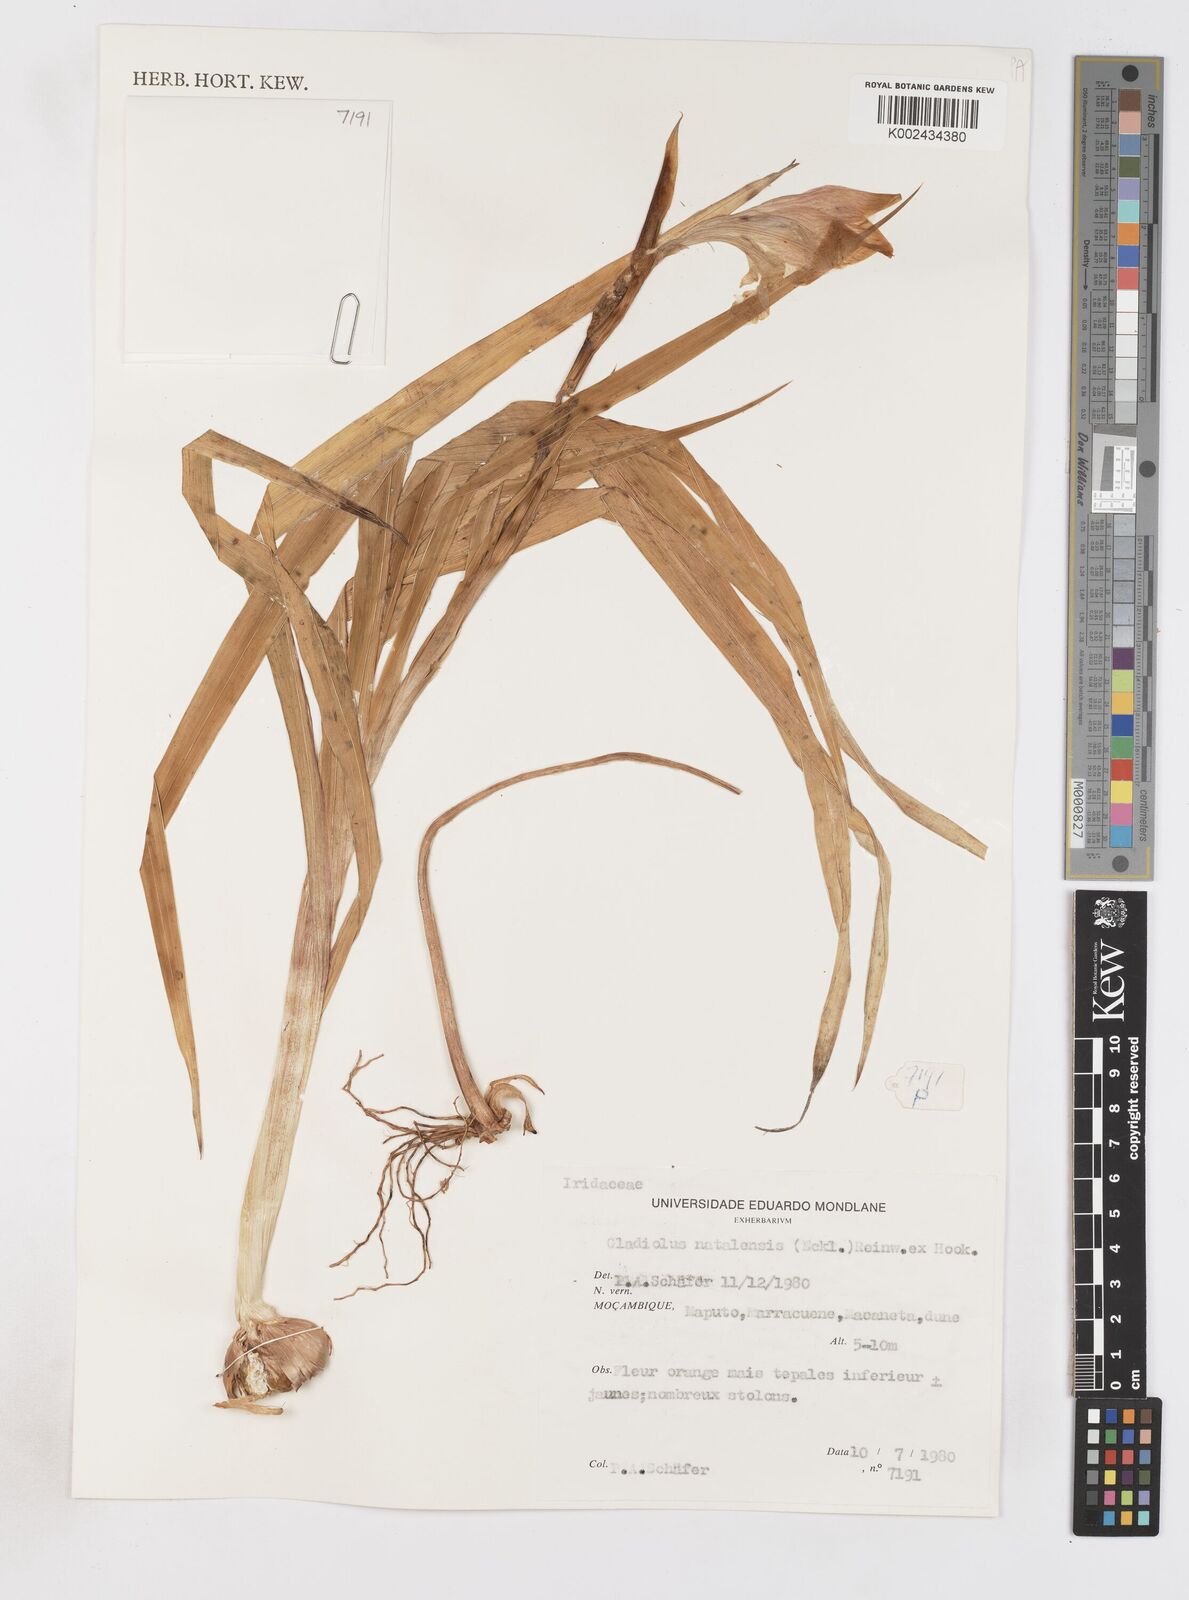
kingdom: Plantae
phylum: Tracheophyta
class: Liliopsida
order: Asparagales
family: Iridaceae
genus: Gladiolus
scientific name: Gladiolus dalenii
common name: Cornflag
